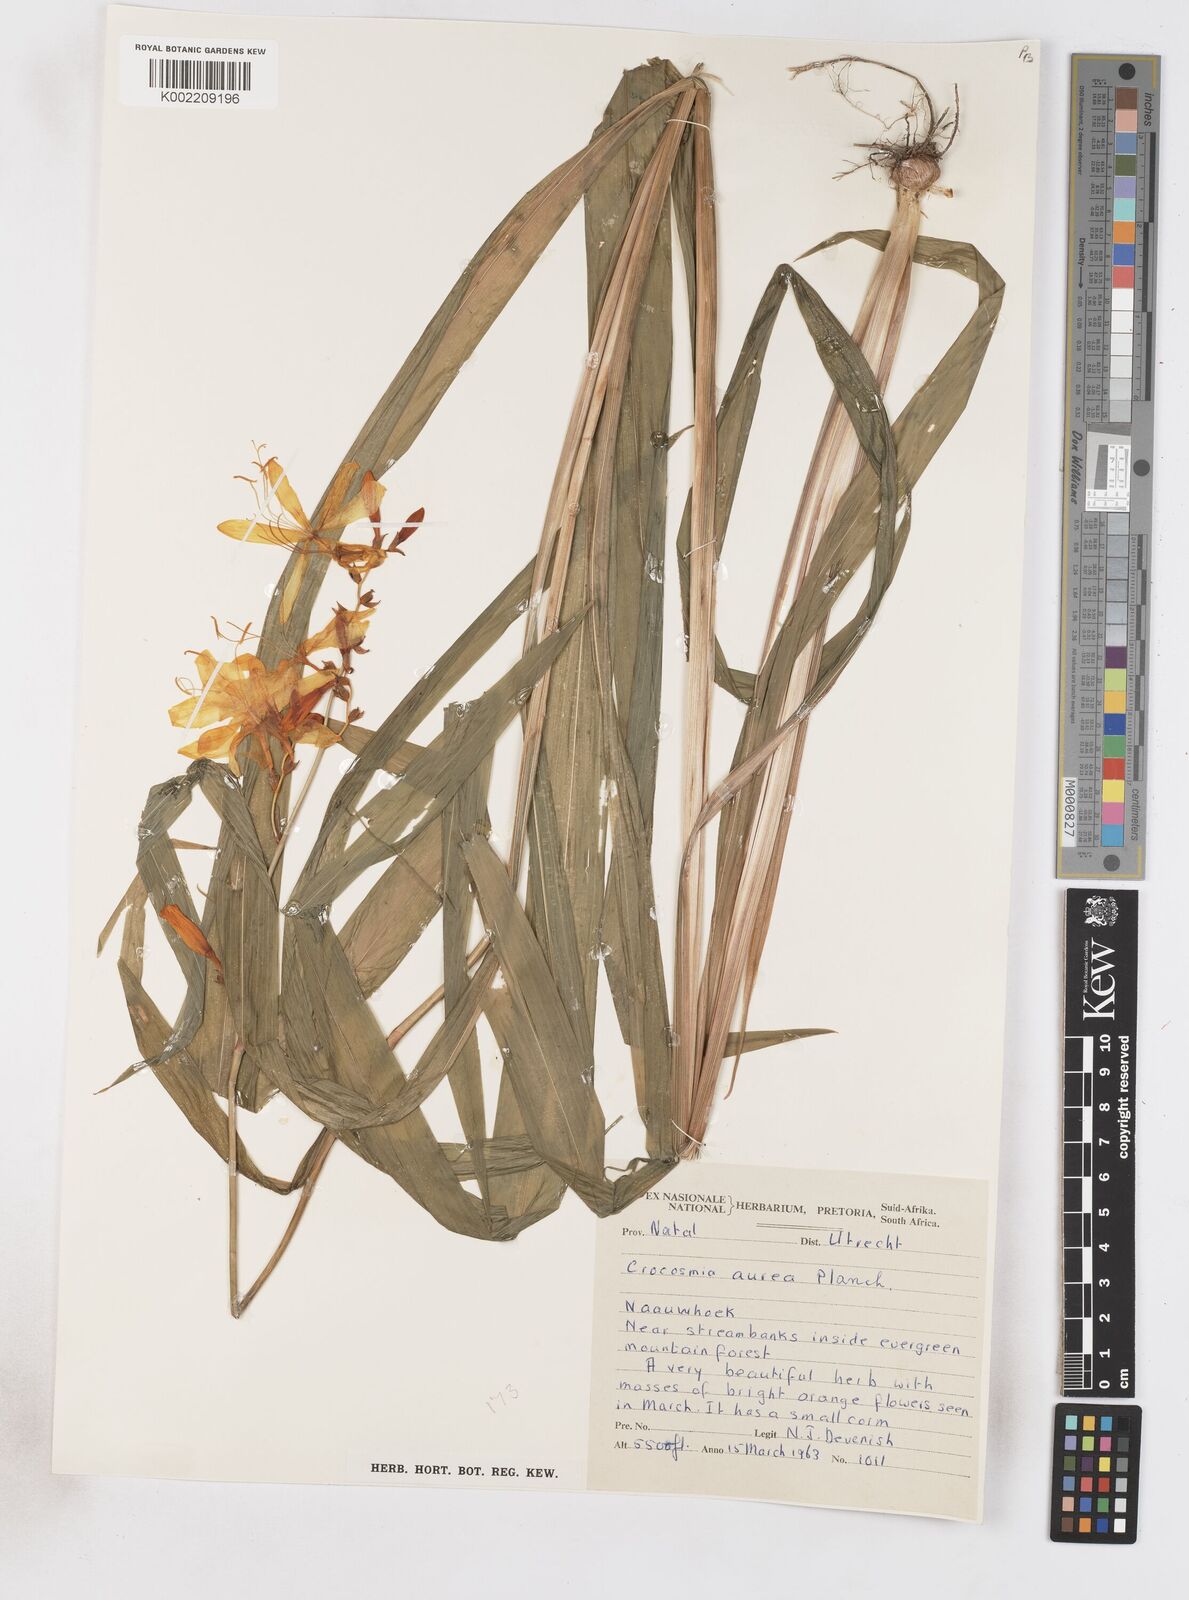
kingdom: Plantae
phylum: Tracheophyta
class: Liliopsida
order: Asparagales
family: Iridaceae
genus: Crocosmia
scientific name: Crocosmia aurea
